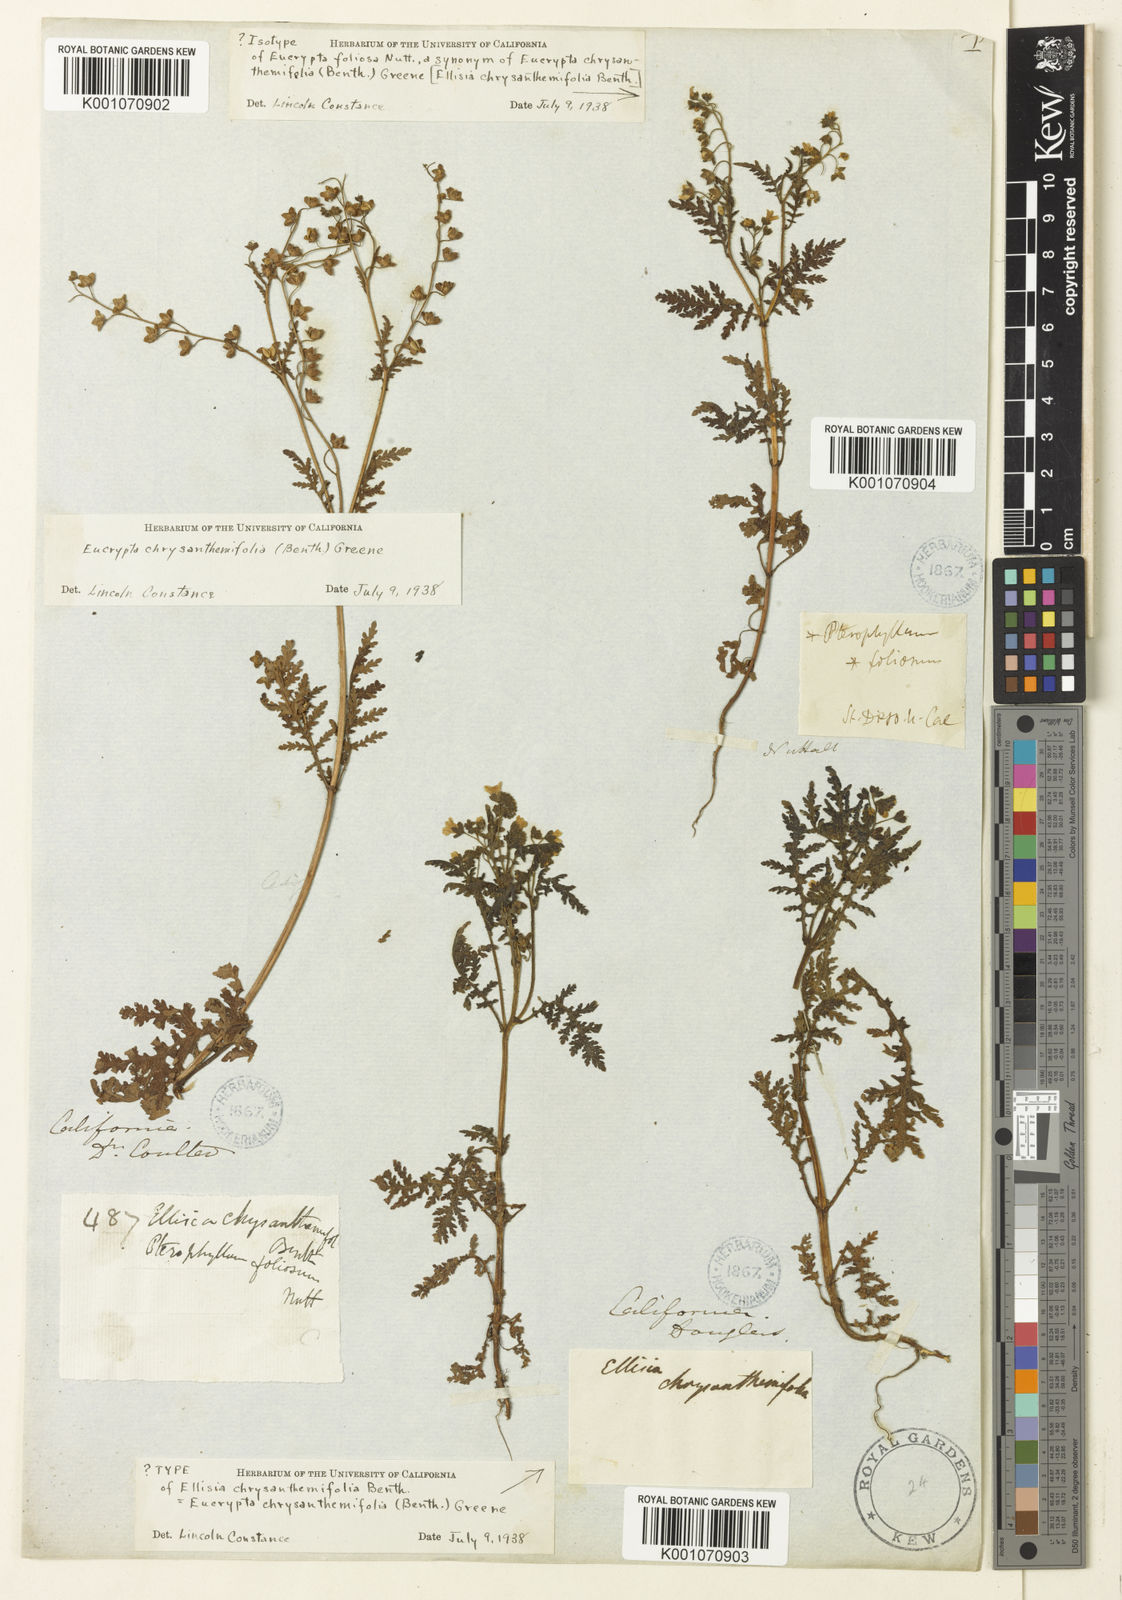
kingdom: Plantae
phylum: Tracheophyta
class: Magnoliopsida
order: Boraginales
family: Hydrophyllaceae
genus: Eucrypta
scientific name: Eucrypta chrysanthemifolia
